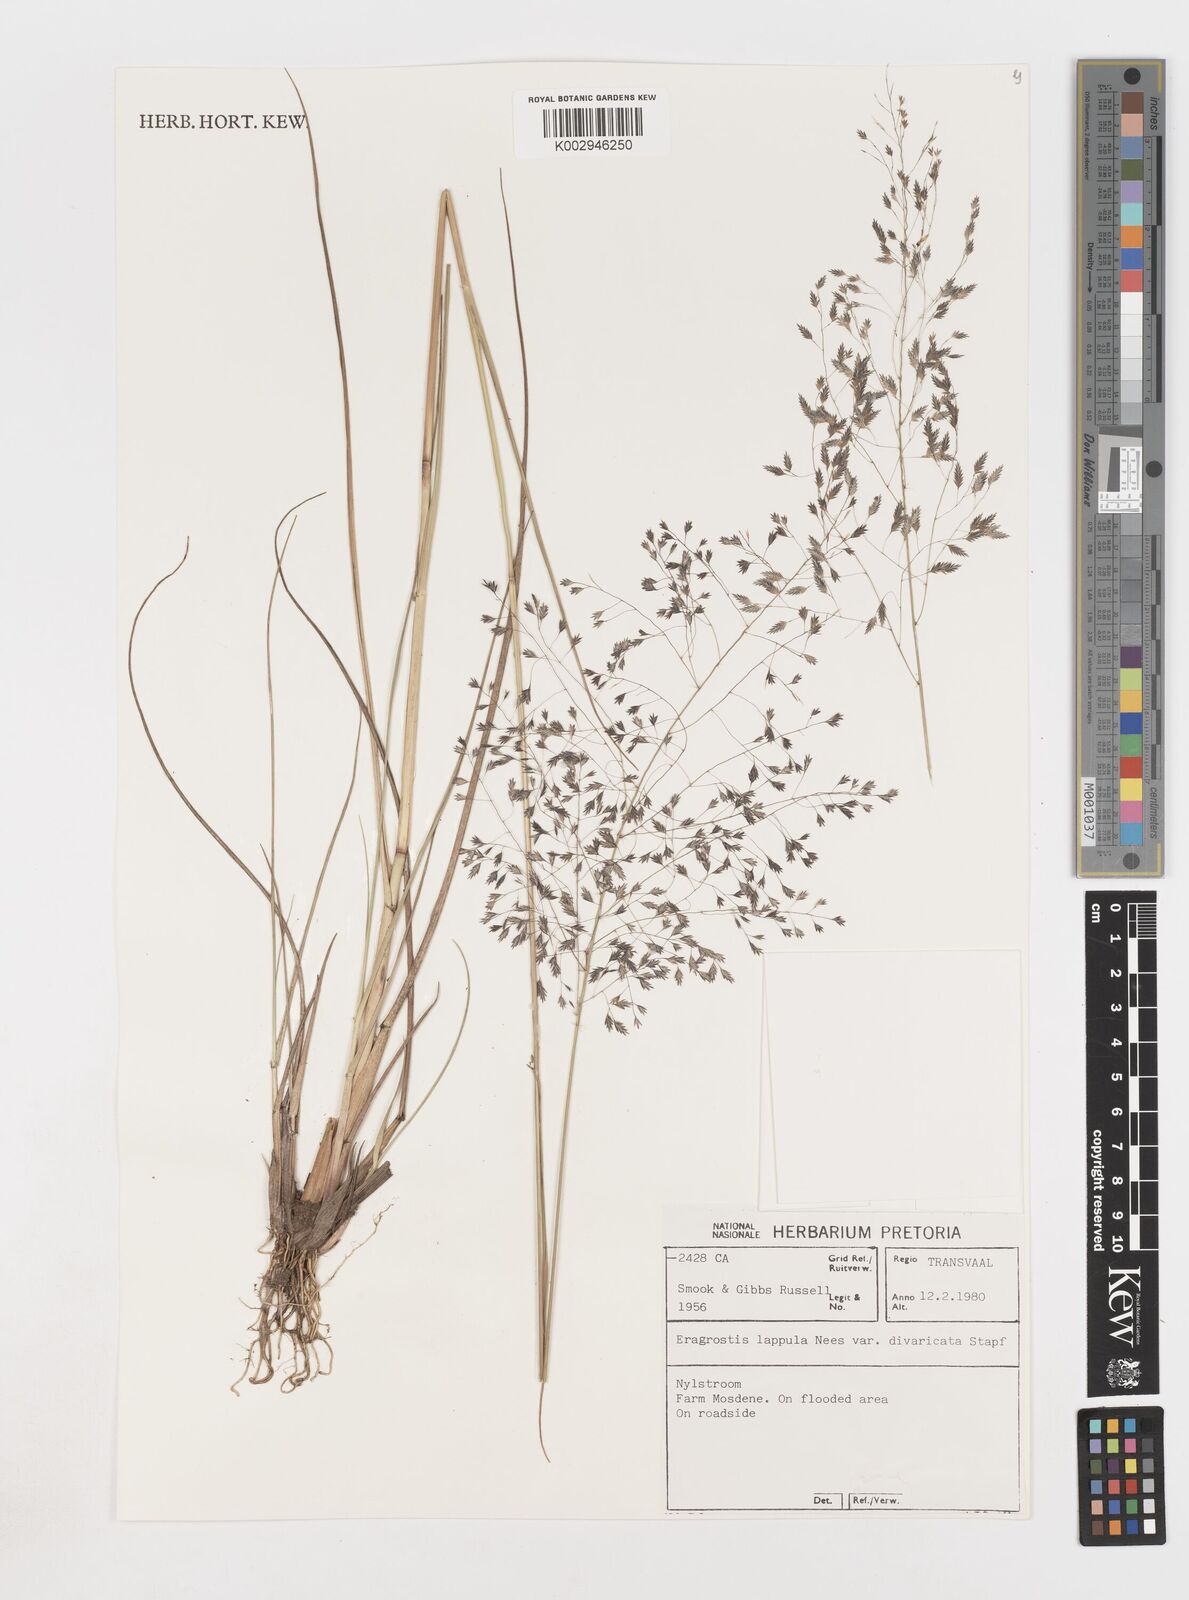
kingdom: Plantae
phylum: Tracheophyta
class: Liliopsida
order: Poales
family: Poaceae
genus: Eragrostis
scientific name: Eragrostis lappula
